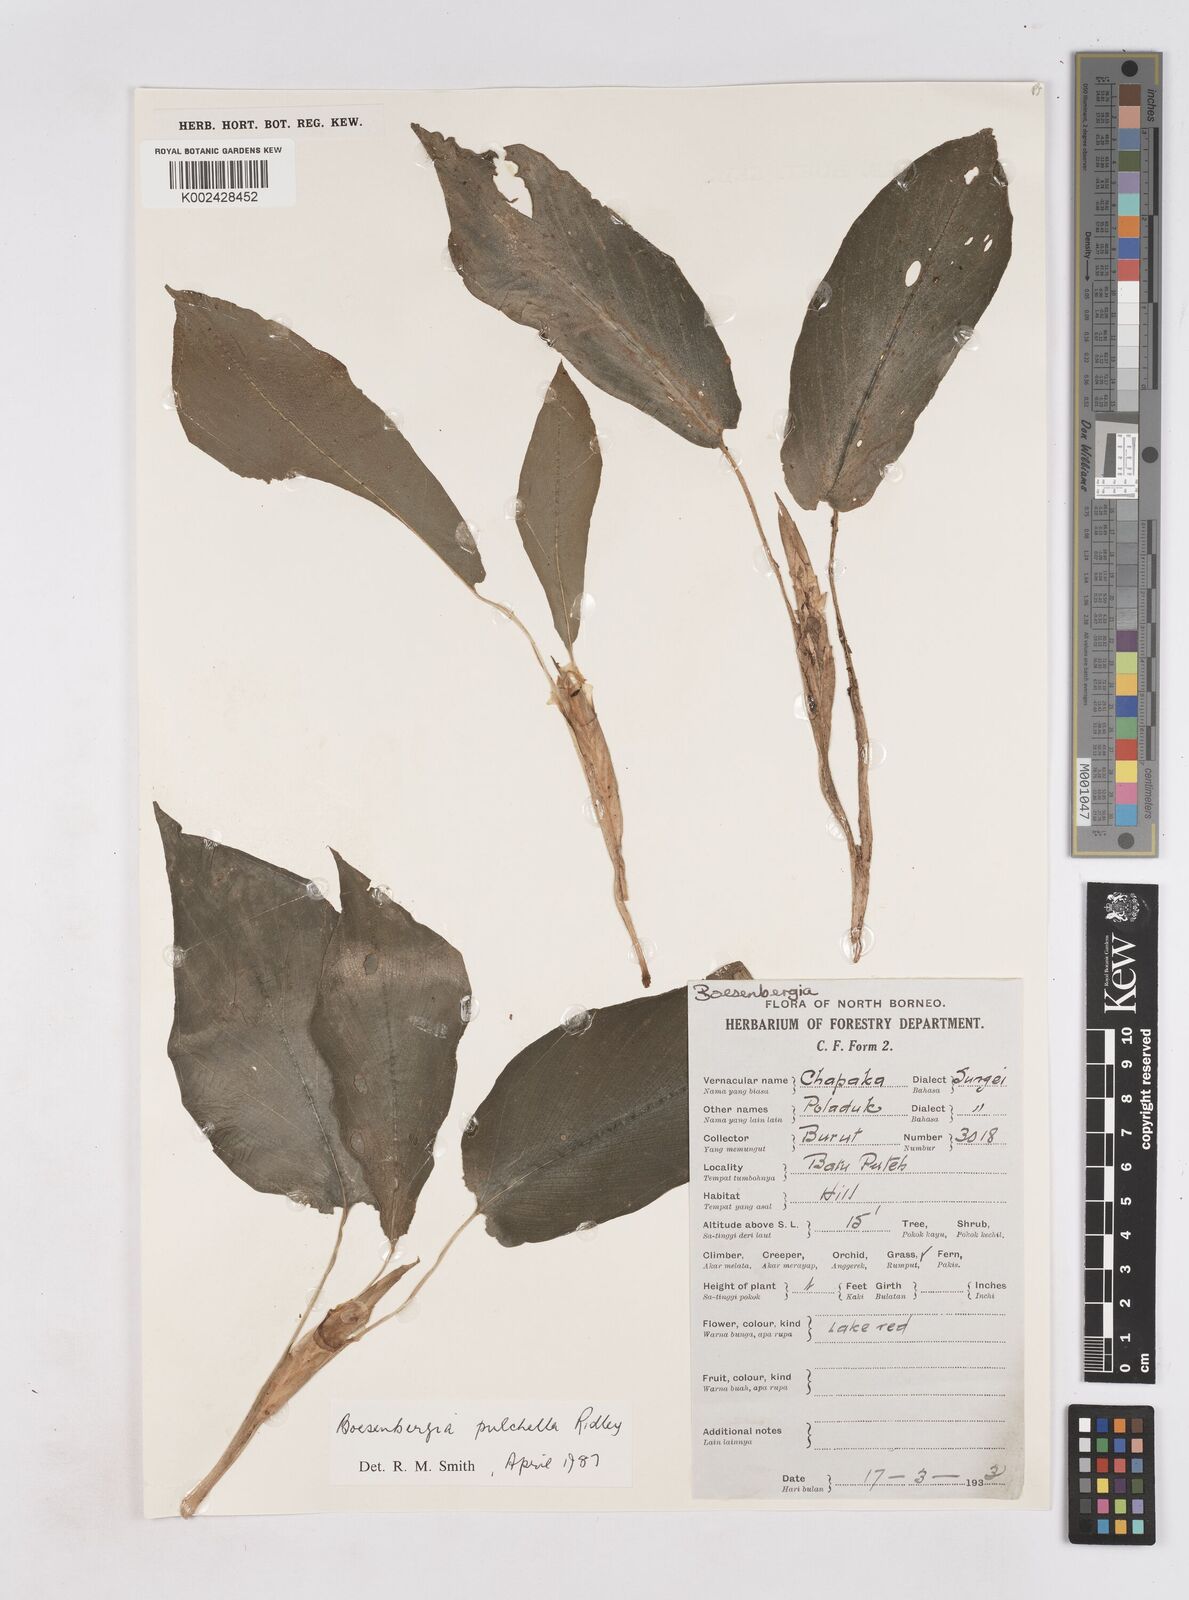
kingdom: Plantae
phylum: Tracheophyta
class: Liliopsida
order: Zingiberales
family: Zingiberaceae
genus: Boesenbergia
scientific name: Boesenbergia pulchella
